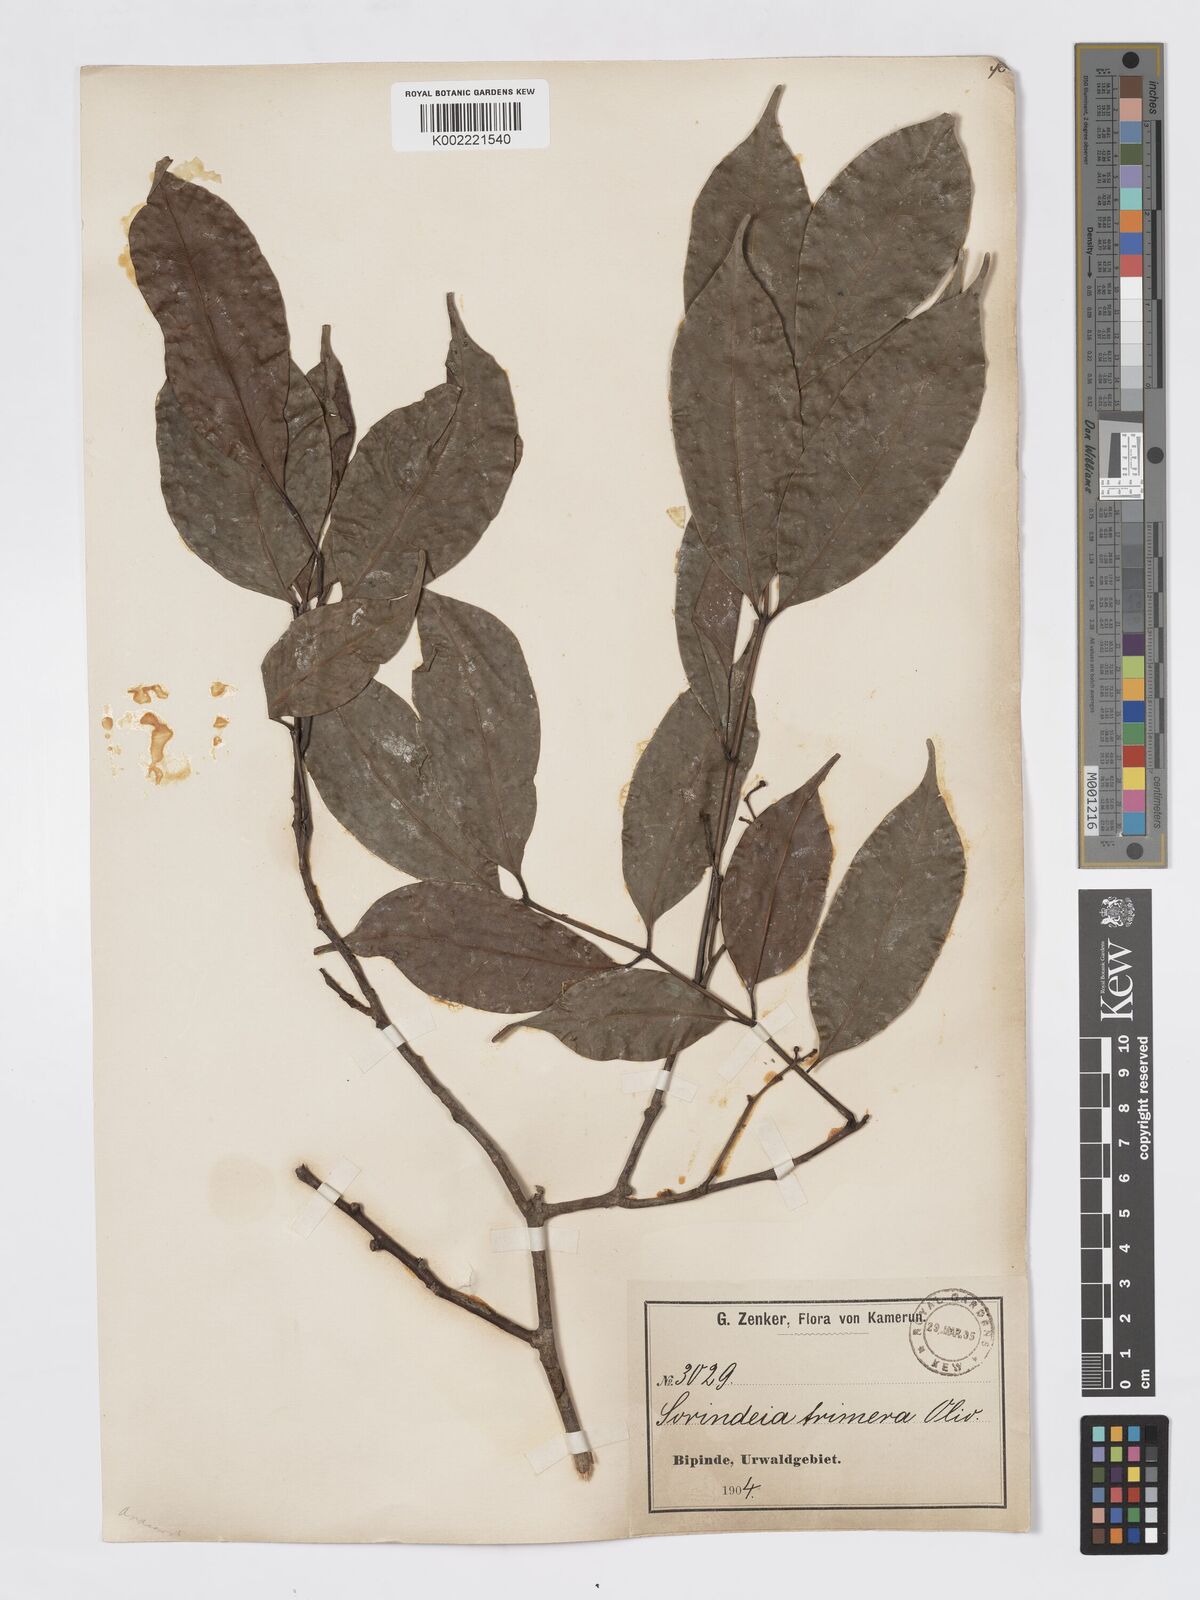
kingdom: Plantae
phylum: Tracheophyta
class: Magnoliopsida
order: Sapindales
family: Burseraceae
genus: Pachylobus
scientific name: Pachylobus trimerus
